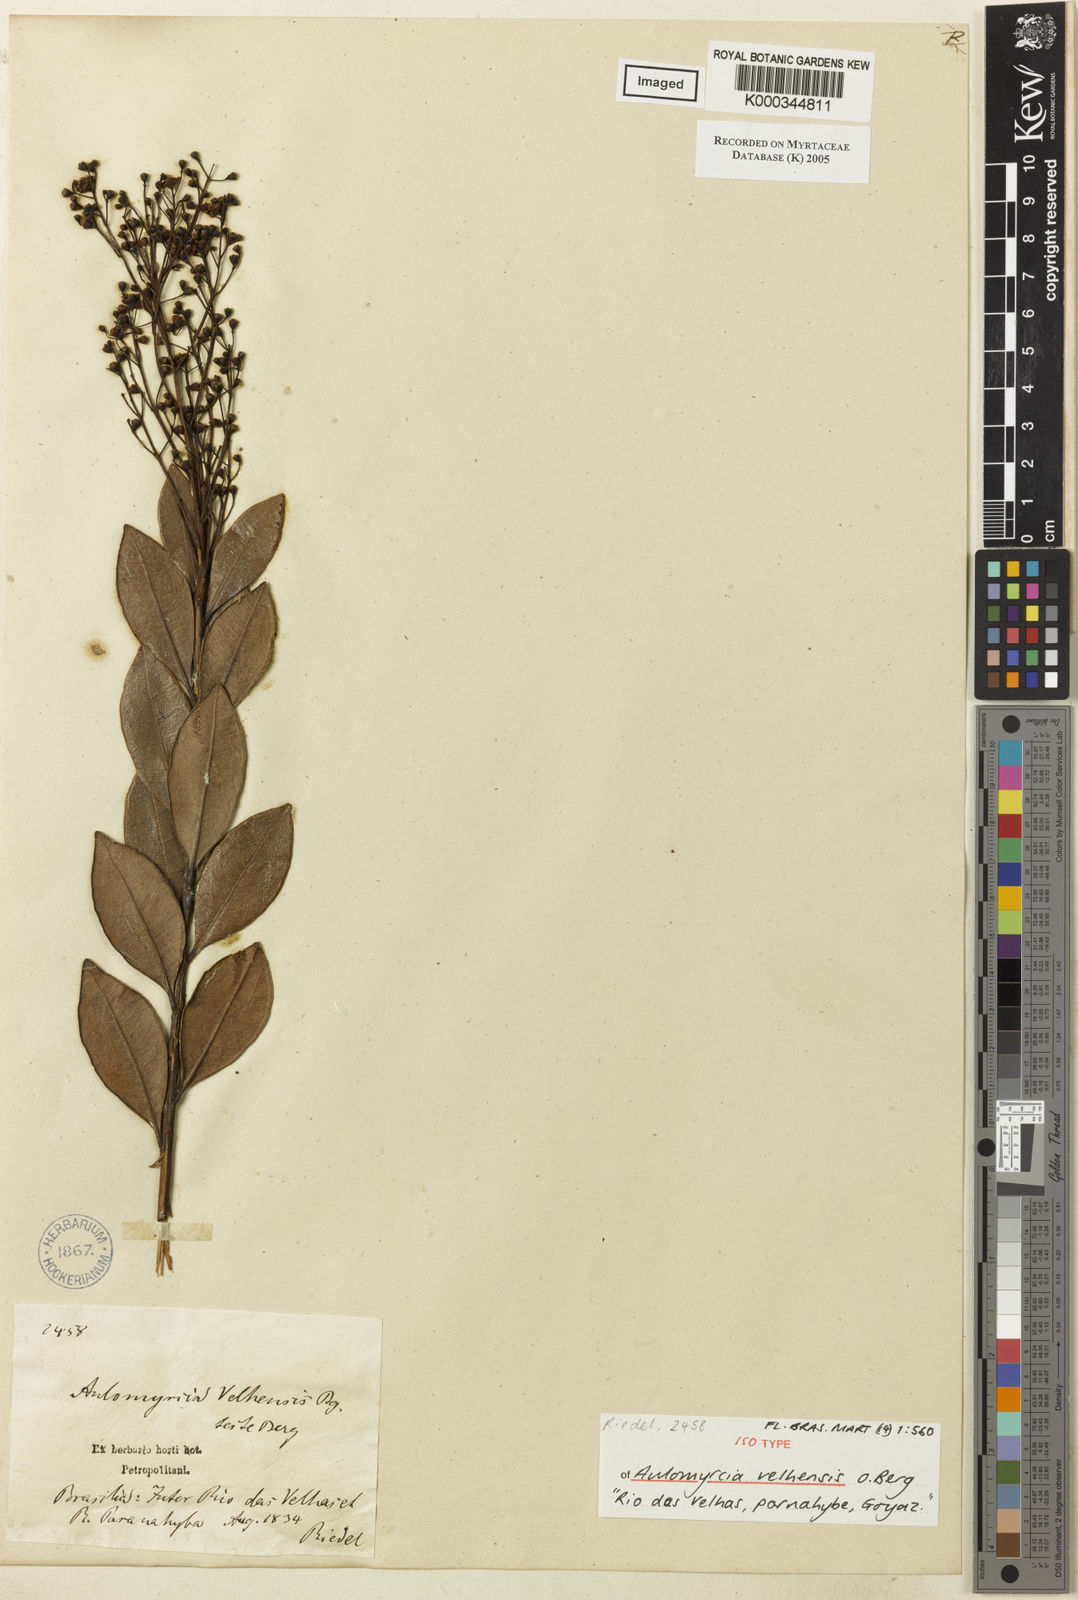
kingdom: Plantae
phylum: Tracheophyta
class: Magnoliopsida
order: Myrtales
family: Myrtaceae
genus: Myrcia
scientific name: Myrcia guianensis
